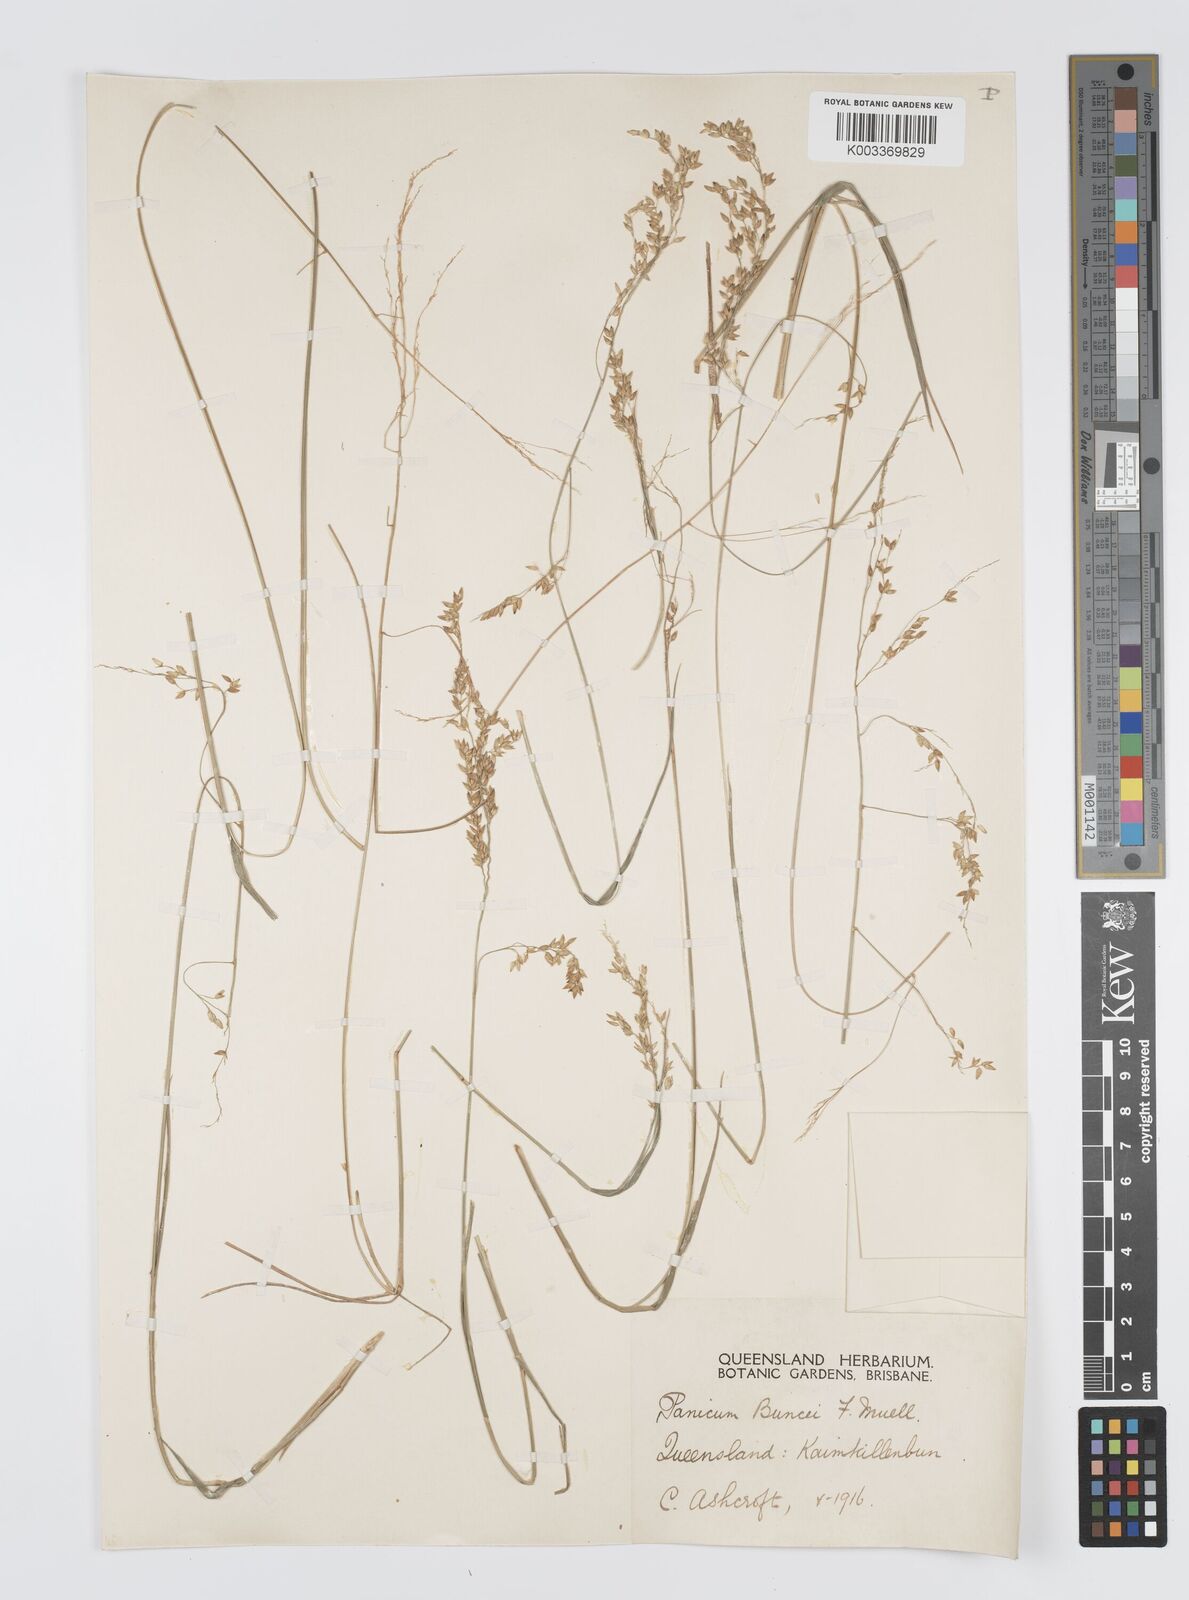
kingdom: Plantae
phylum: Tracheophyta
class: Liliopsida
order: Poales
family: Poaceae
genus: Panicum
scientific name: Panicum buncei
